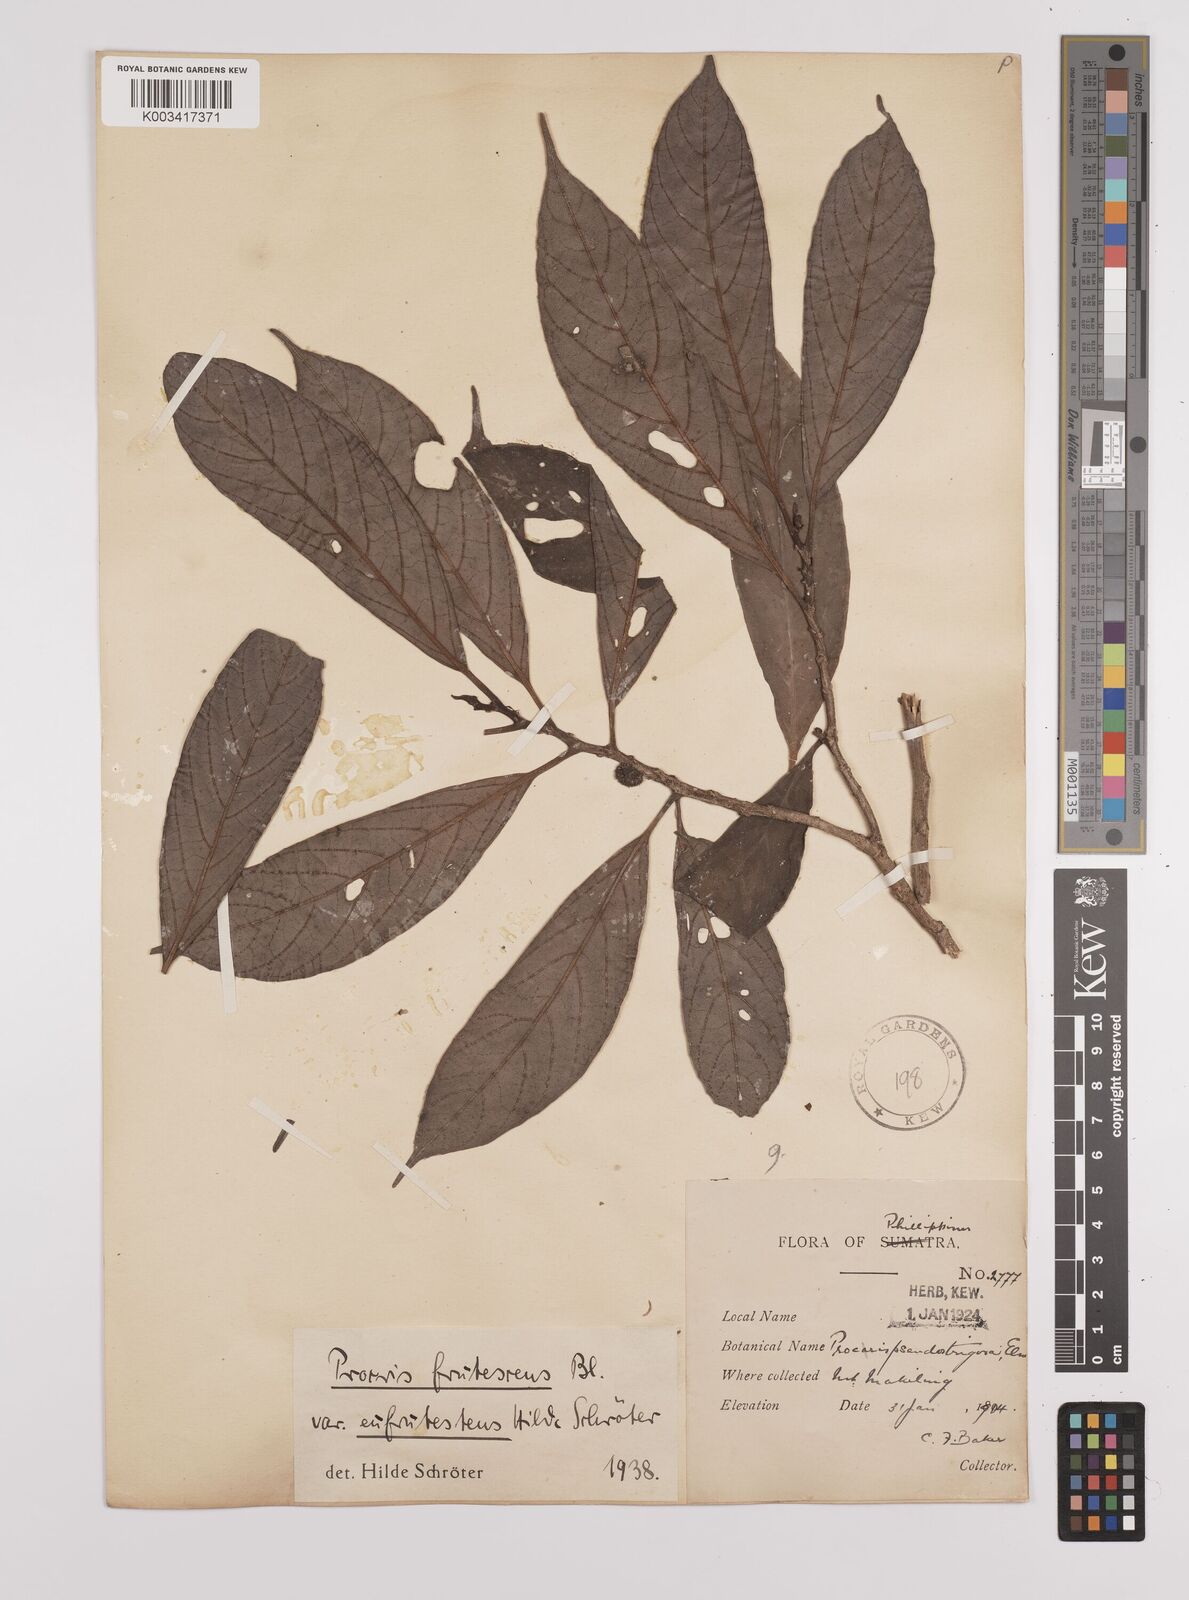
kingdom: Plantae
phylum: Tracheophyta
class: Magnoliopsida
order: Rosales
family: Urticaceae
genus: Procris
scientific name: Procris frutescens
